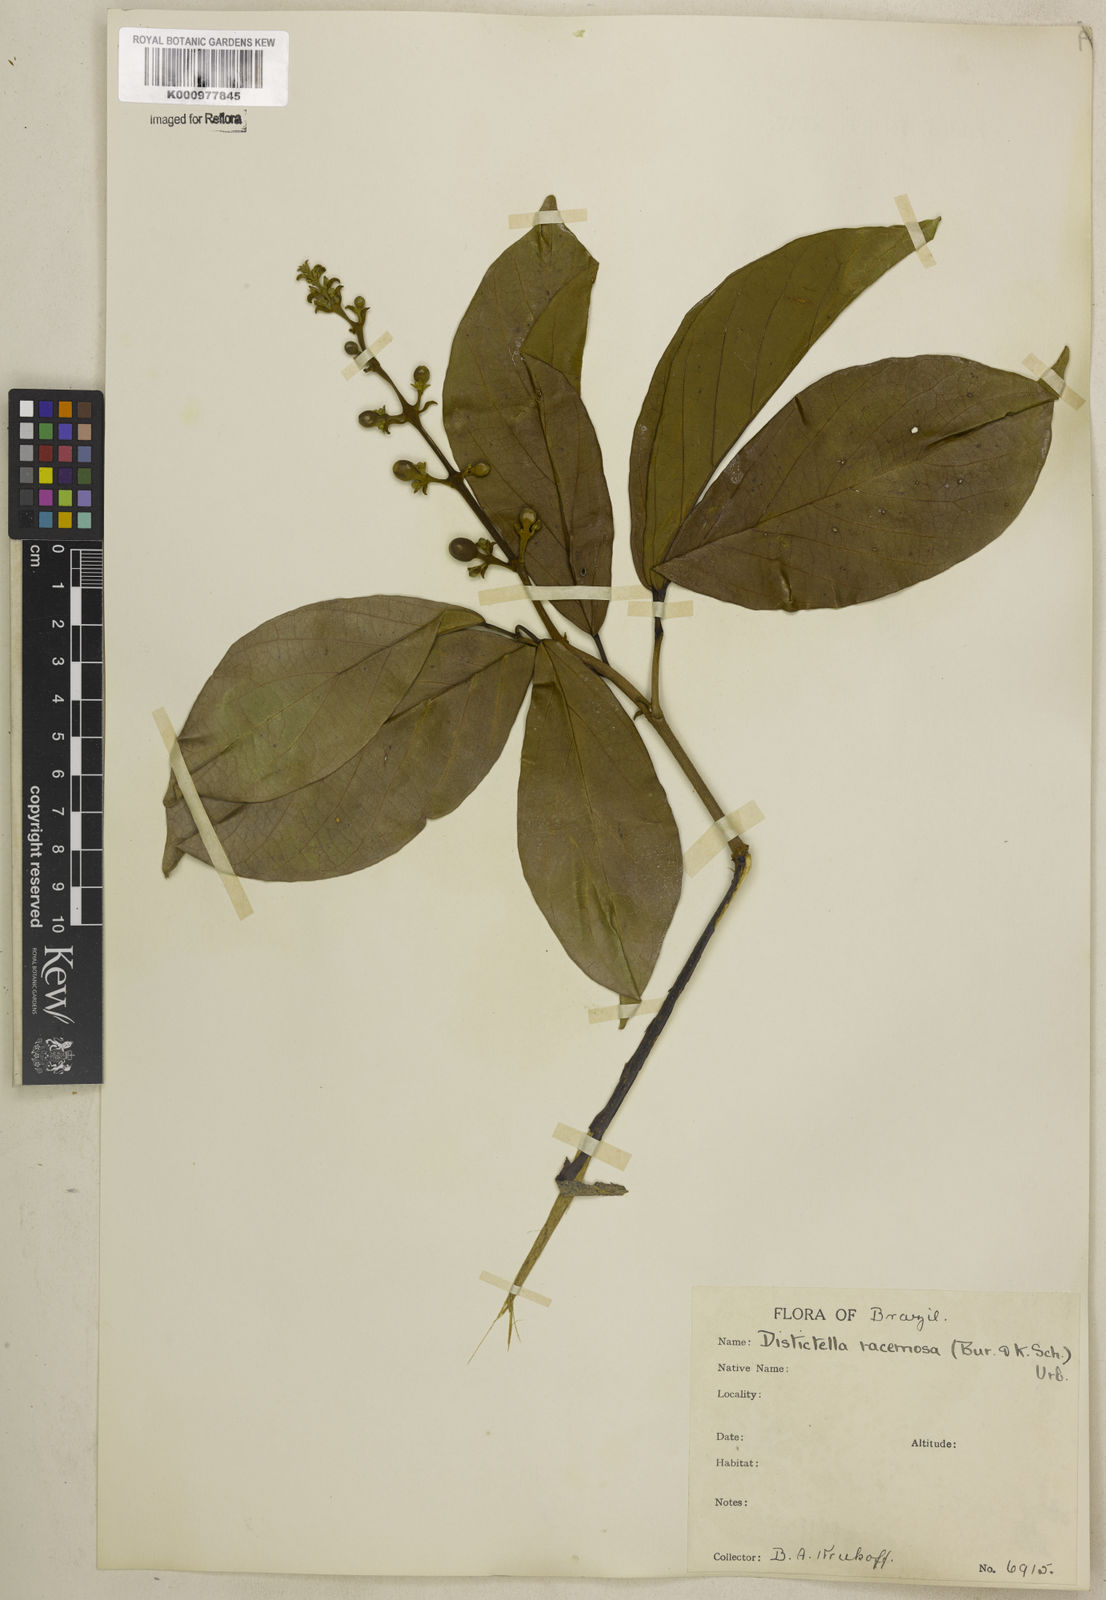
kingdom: Plantae
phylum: Tracheophyta
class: Magnoliopsida
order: Lamiales
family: Bignoniaceae
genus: Amphilophium
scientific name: Amphilophium racemosum
